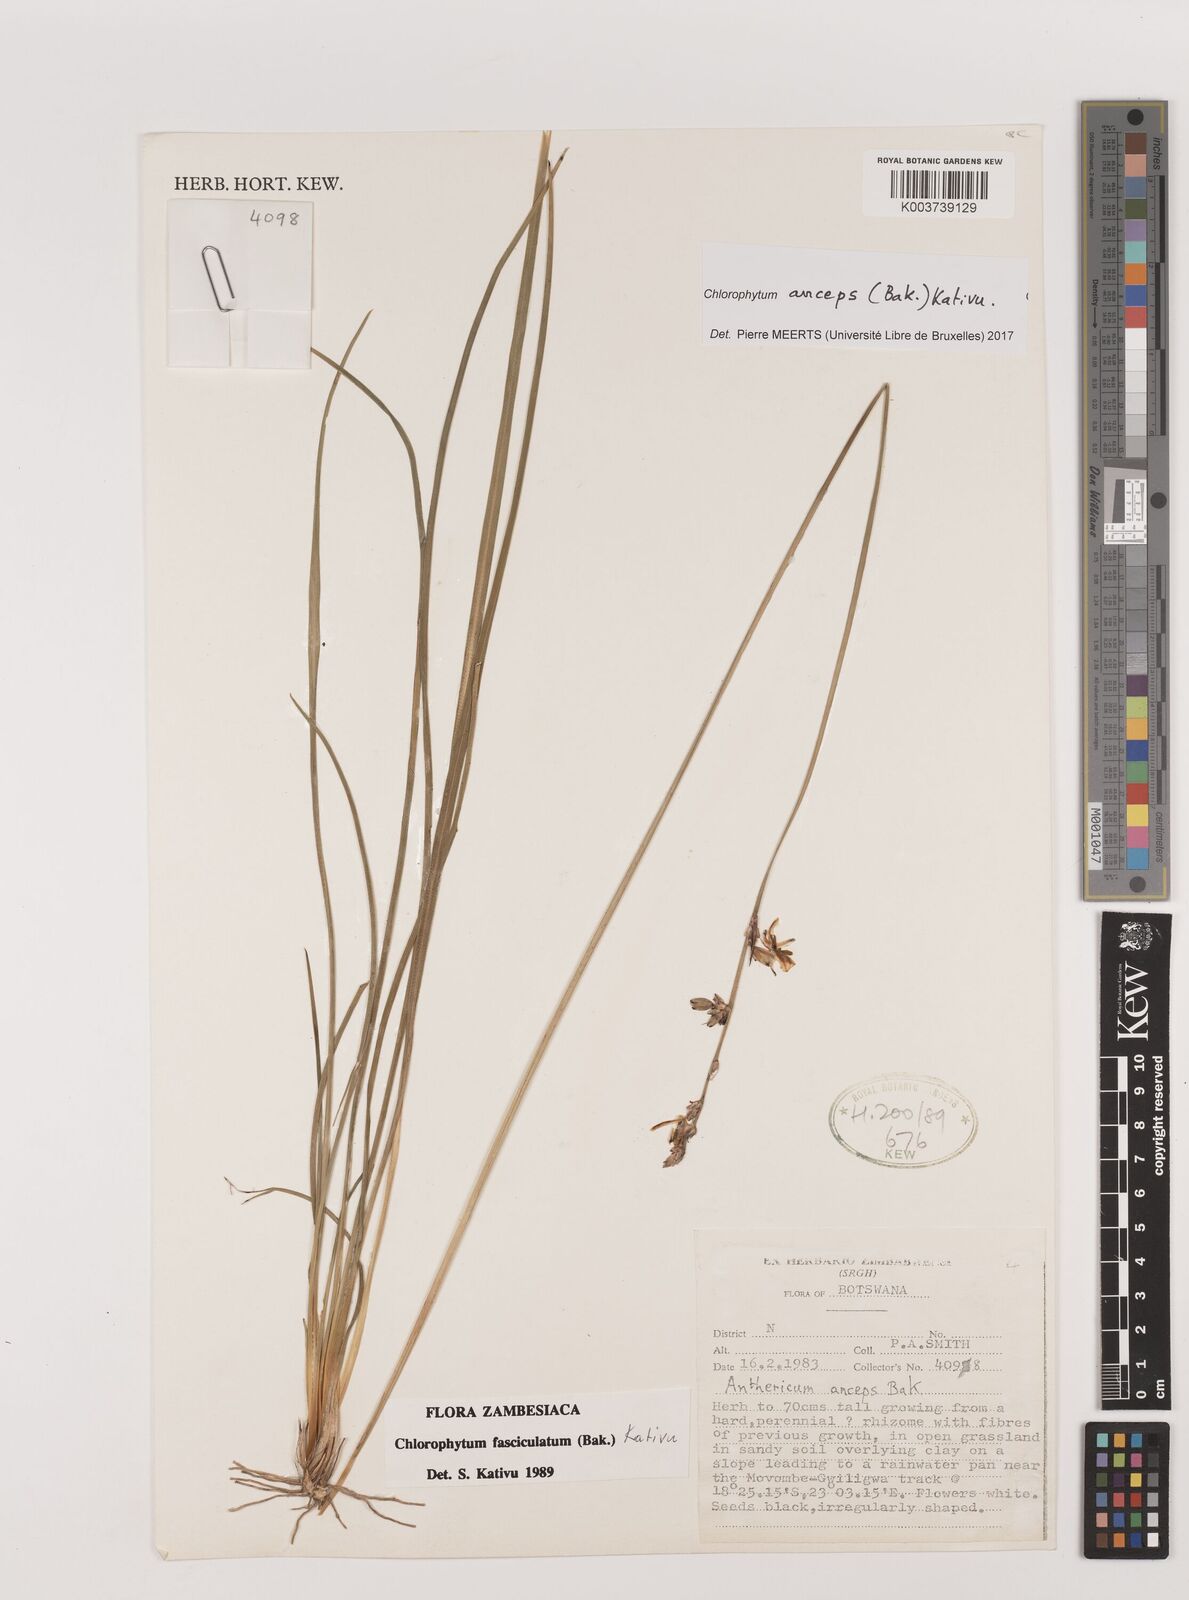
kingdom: Plantae
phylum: Tracheophyta
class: Liliopsida
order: Asparagales
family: Asparagaceae
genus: Chlorophytum
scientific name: Chlorophytum anceps
